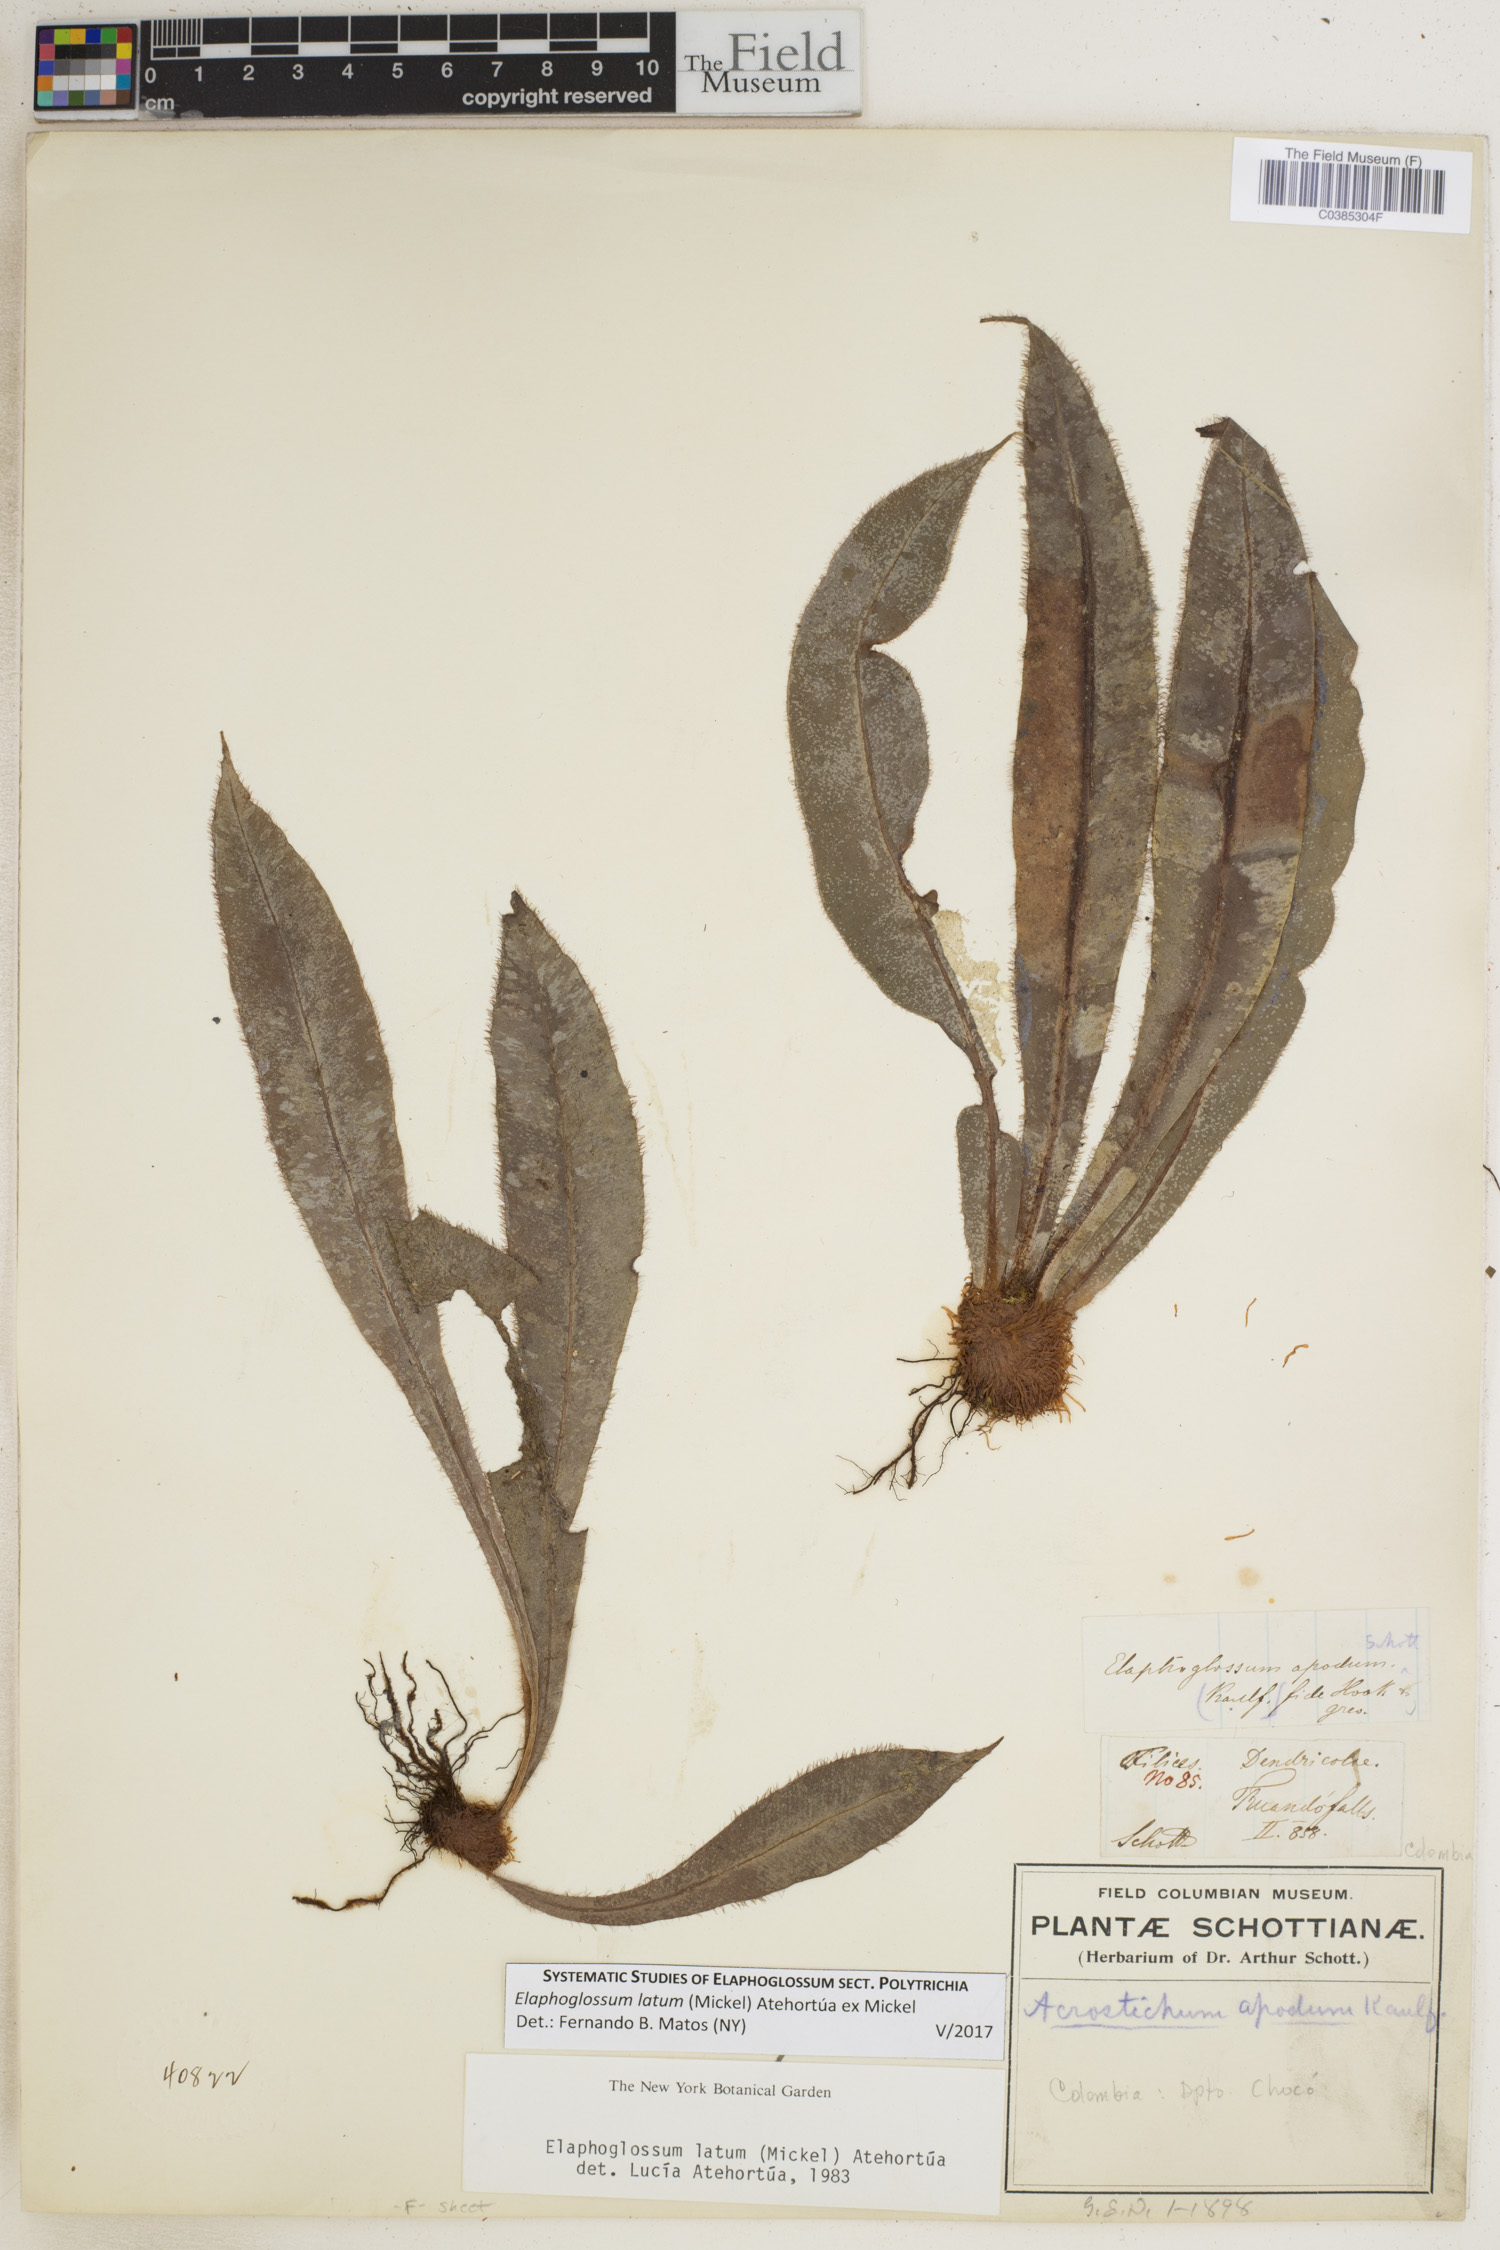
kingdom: Plantae
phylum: Tracheophyta
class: Polypodiopsida
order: Polypodiales
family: Dryopteridaceae
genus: Elaphoglossum
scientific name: Elaphoglossum latum
